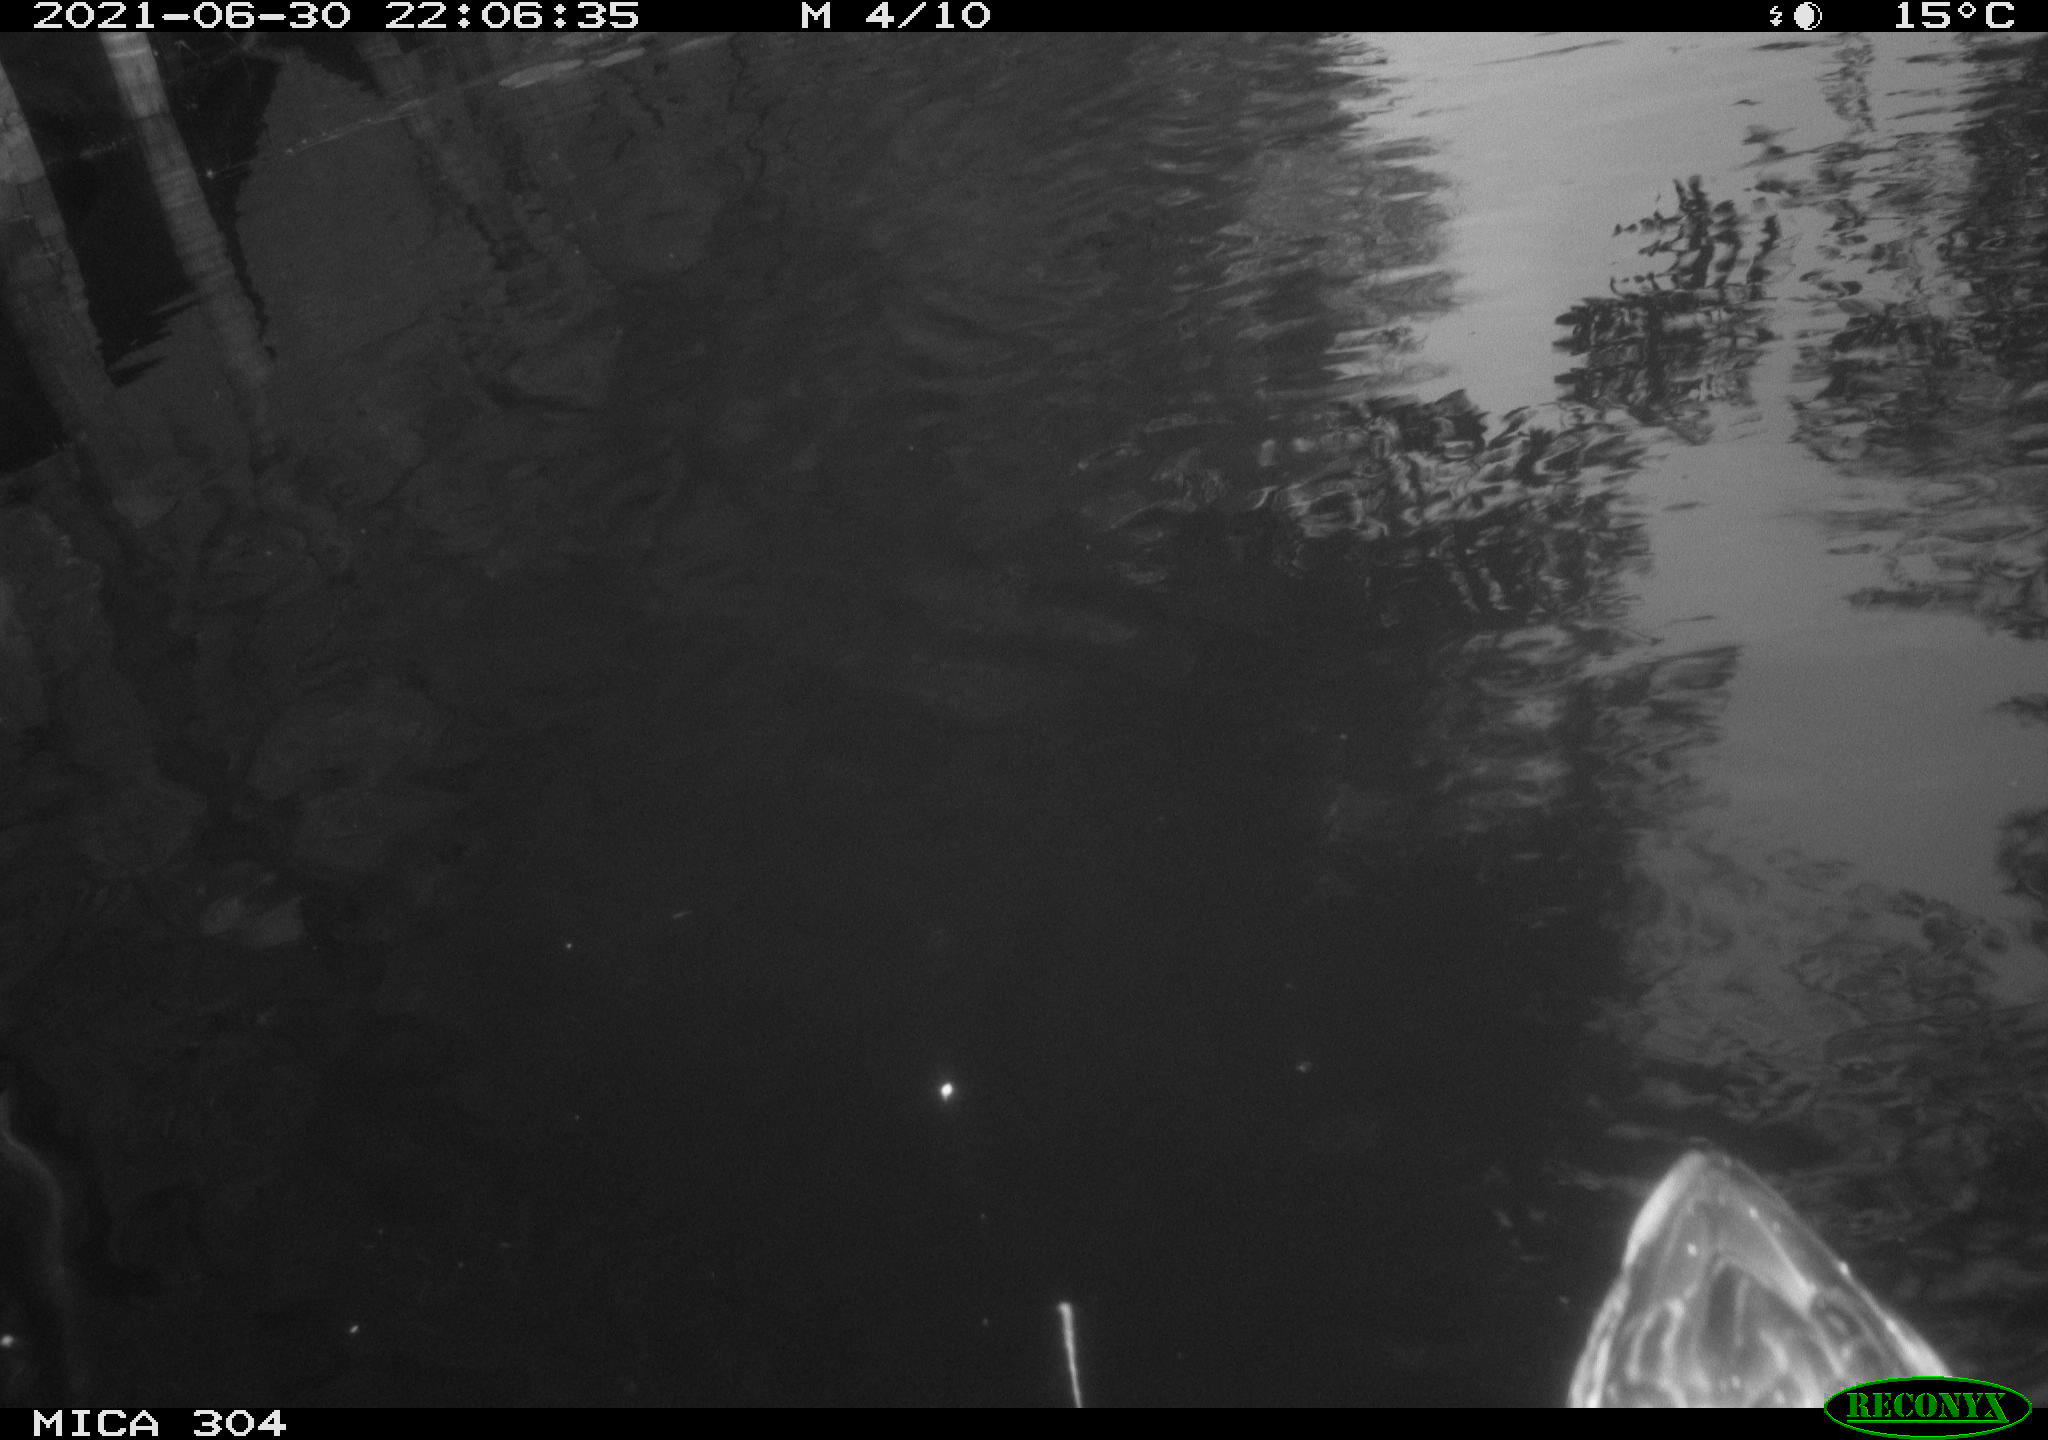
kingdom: Animalia
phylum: Chordata
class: Aves
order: Anseriformes
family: Anatidae
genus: Anas
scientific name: Anas platyrhynchos
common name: Mallard
